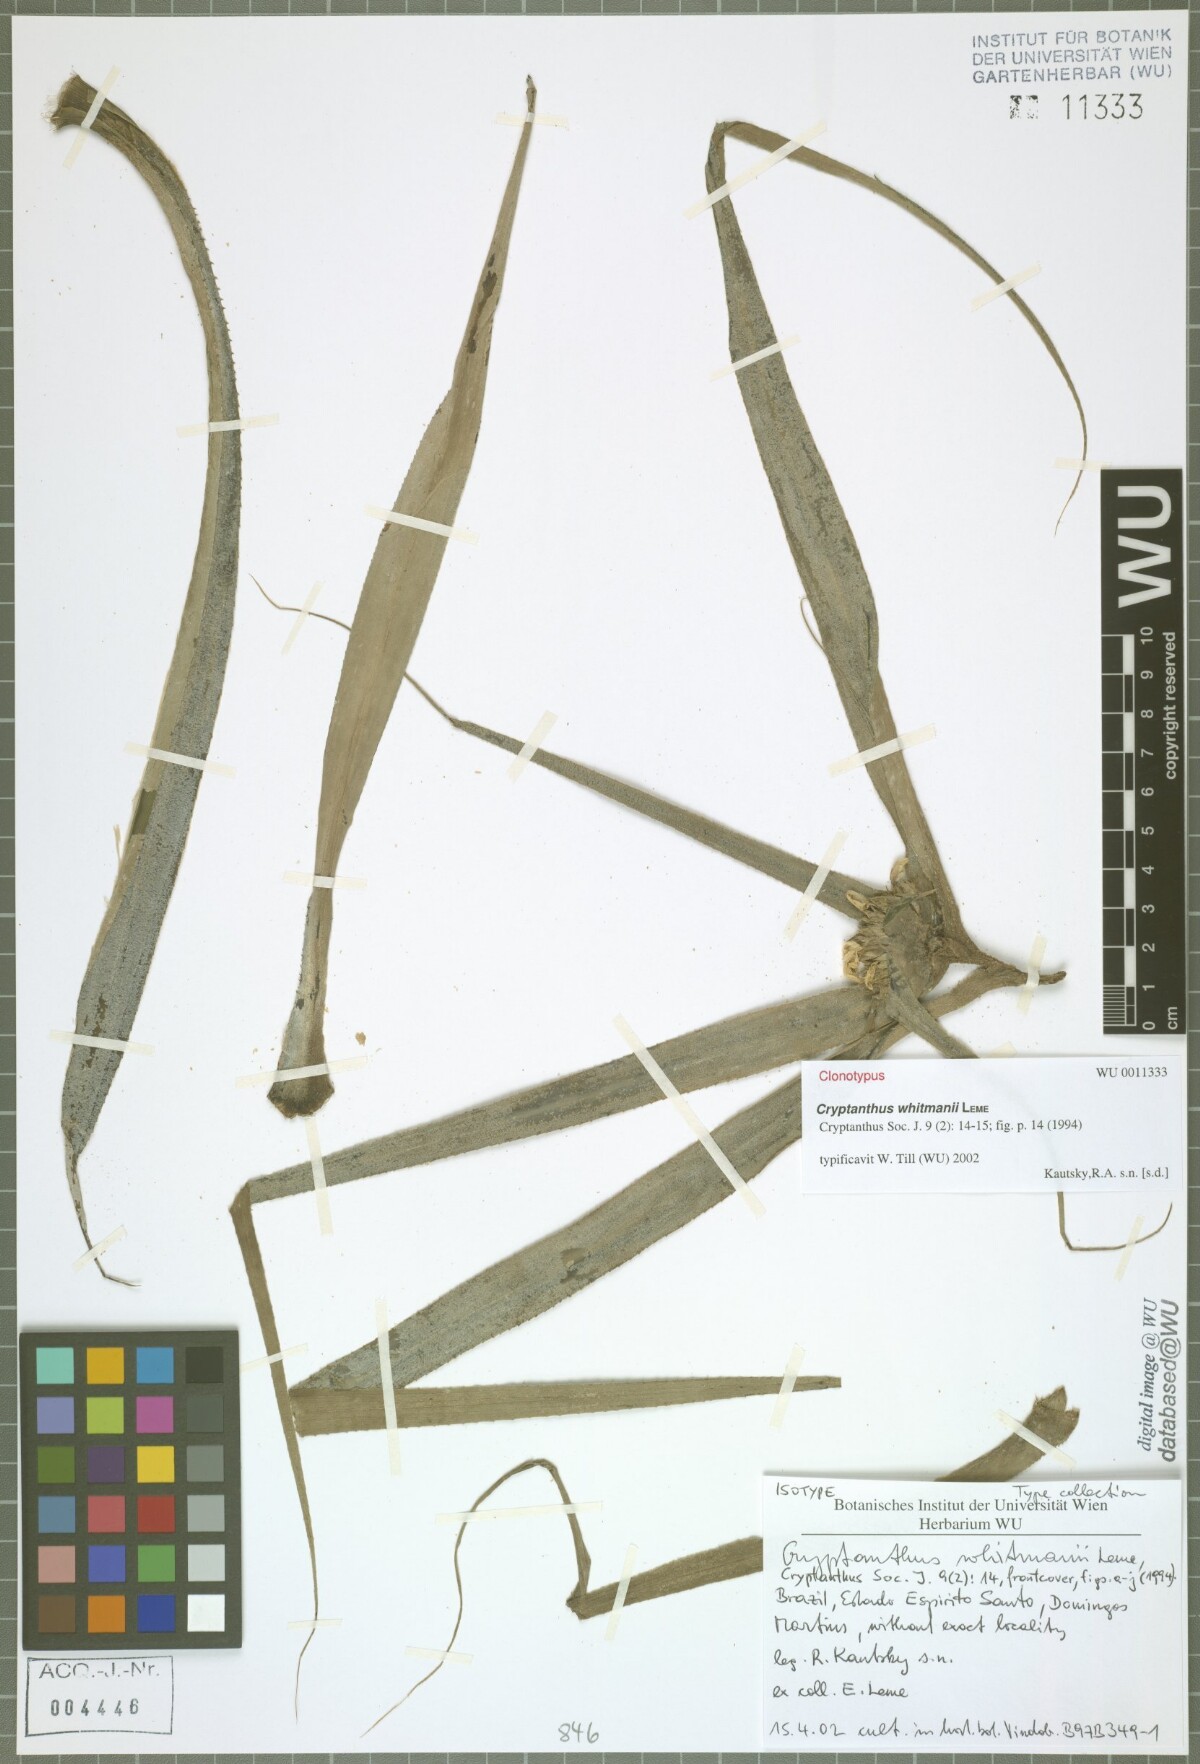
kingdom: Plantae
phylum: Tracheophyta
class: Liliopsida
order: Poales
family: Bromeliaceae
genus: Rokautskyia
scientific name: Rokautskyia whitmanii
